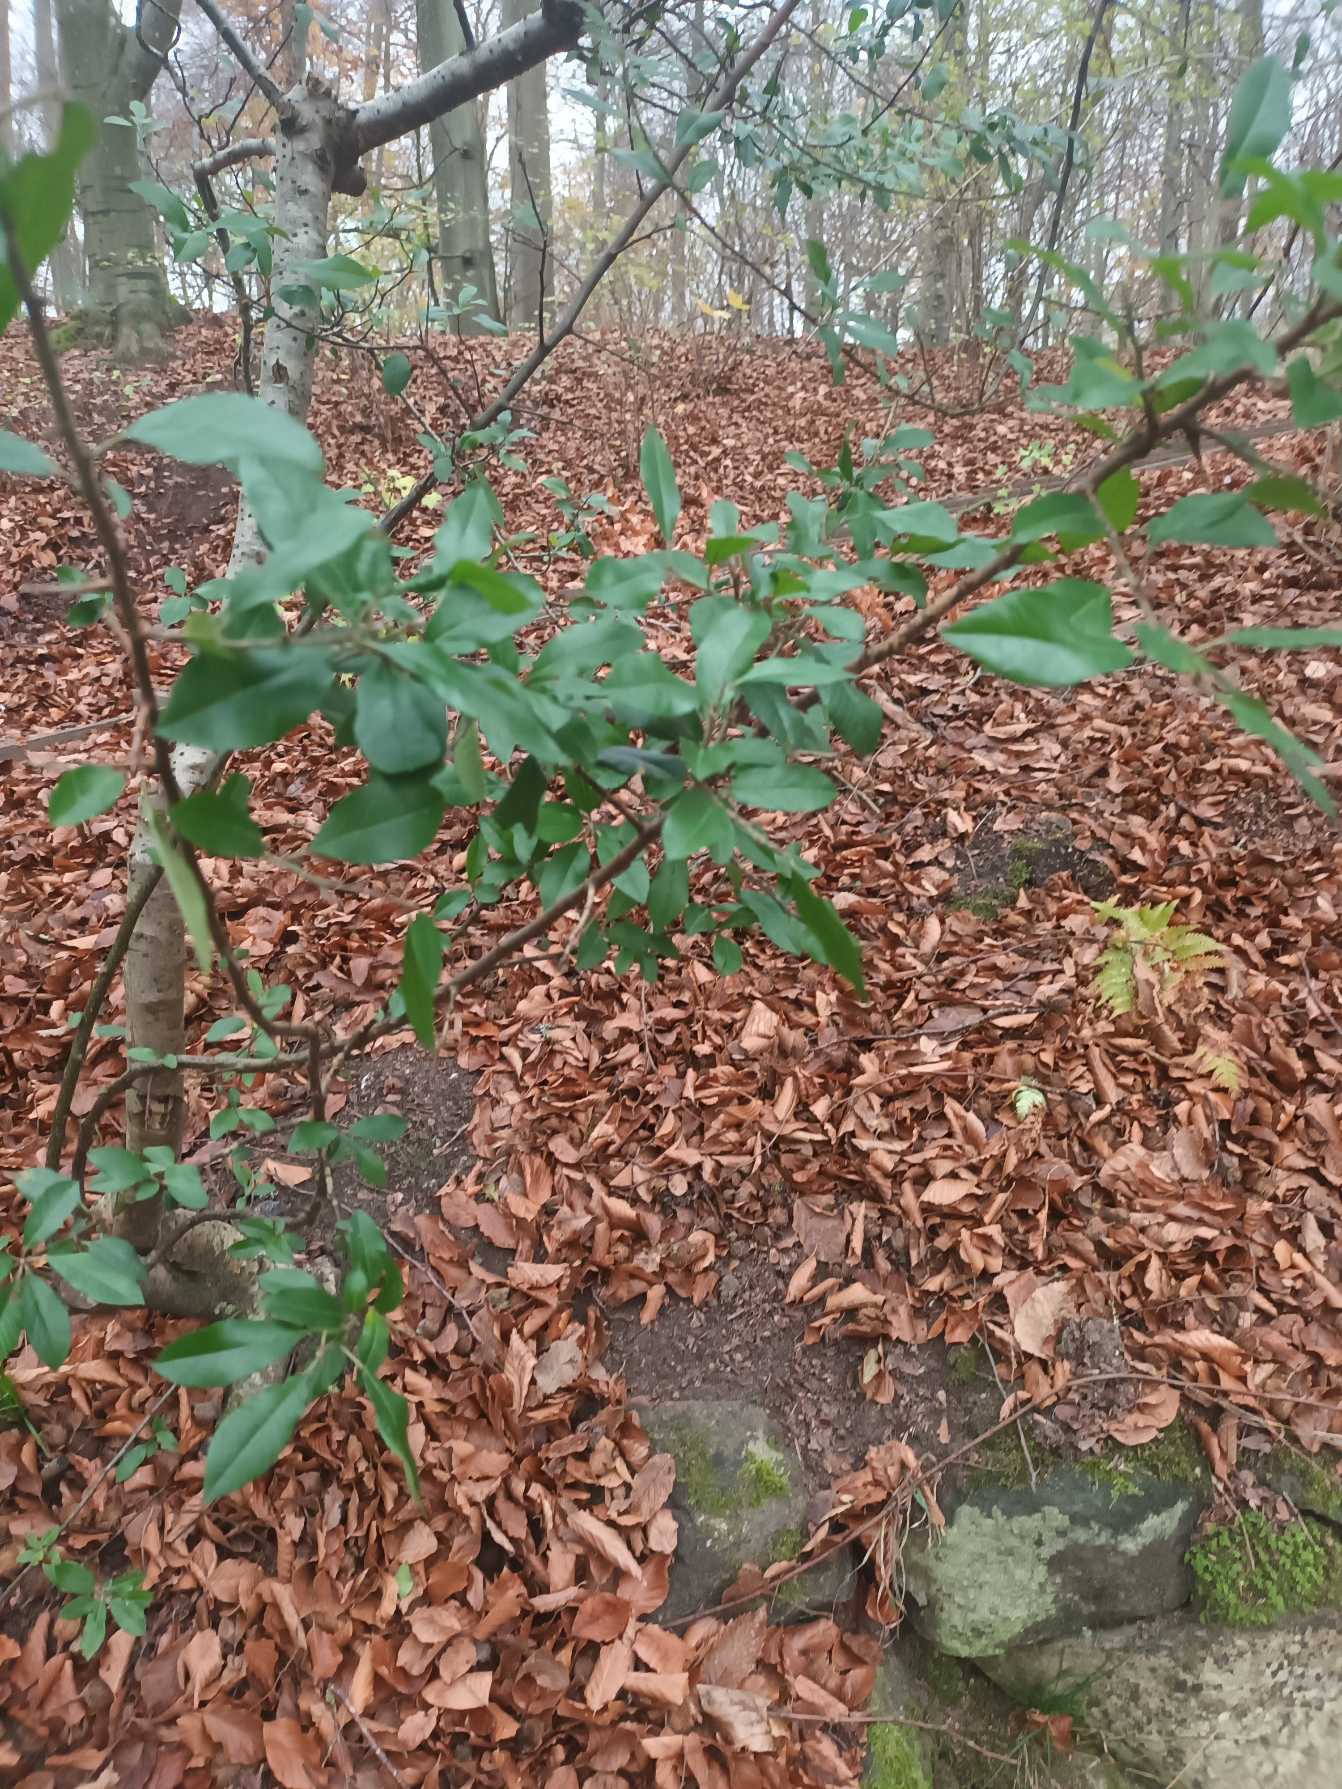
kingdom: Plantae
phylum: Tracheophyta
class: Magnoliopsida
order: Rosales
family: Rosaceae
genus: Pyracantha
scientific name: Pyracantha coccinea
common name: Ildtorn
